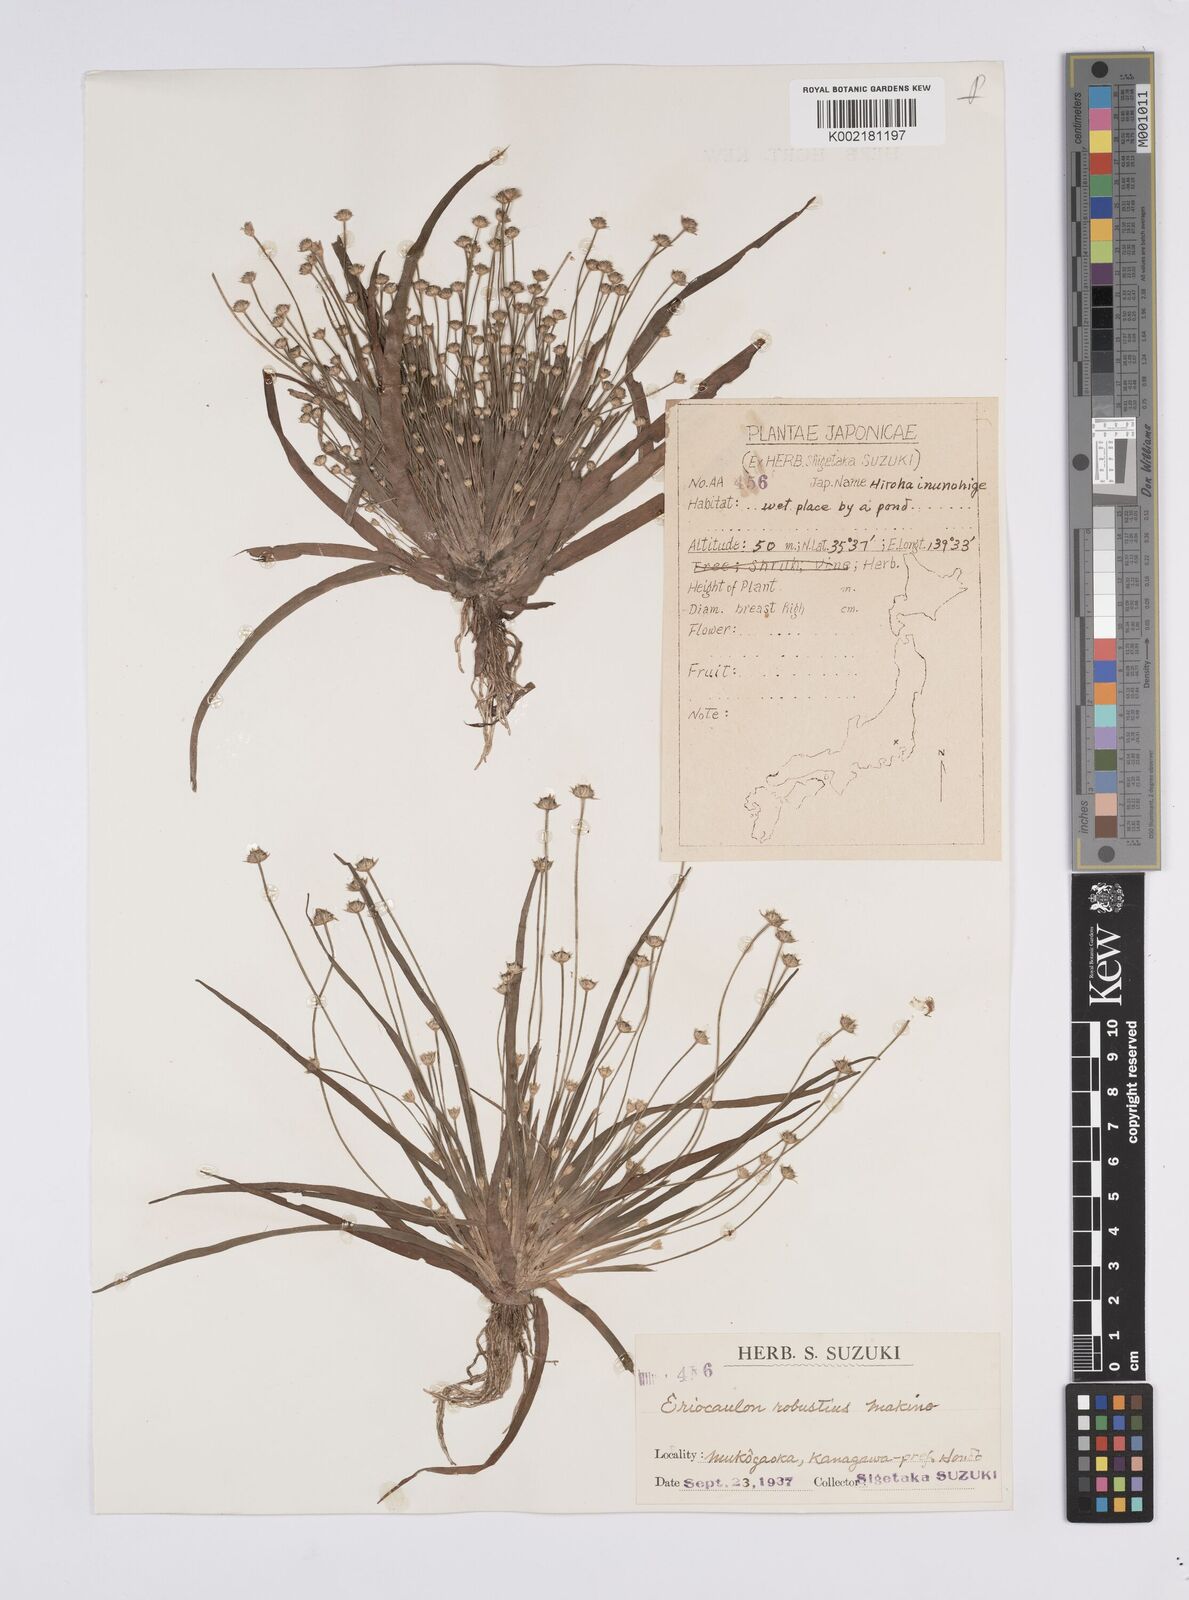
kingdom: Plantae
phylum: Tracheophyta
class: Liliopsida
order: Poales
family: Eriocaulaceae
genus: Eriocaulon
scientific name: Eriocaulon alpestre
